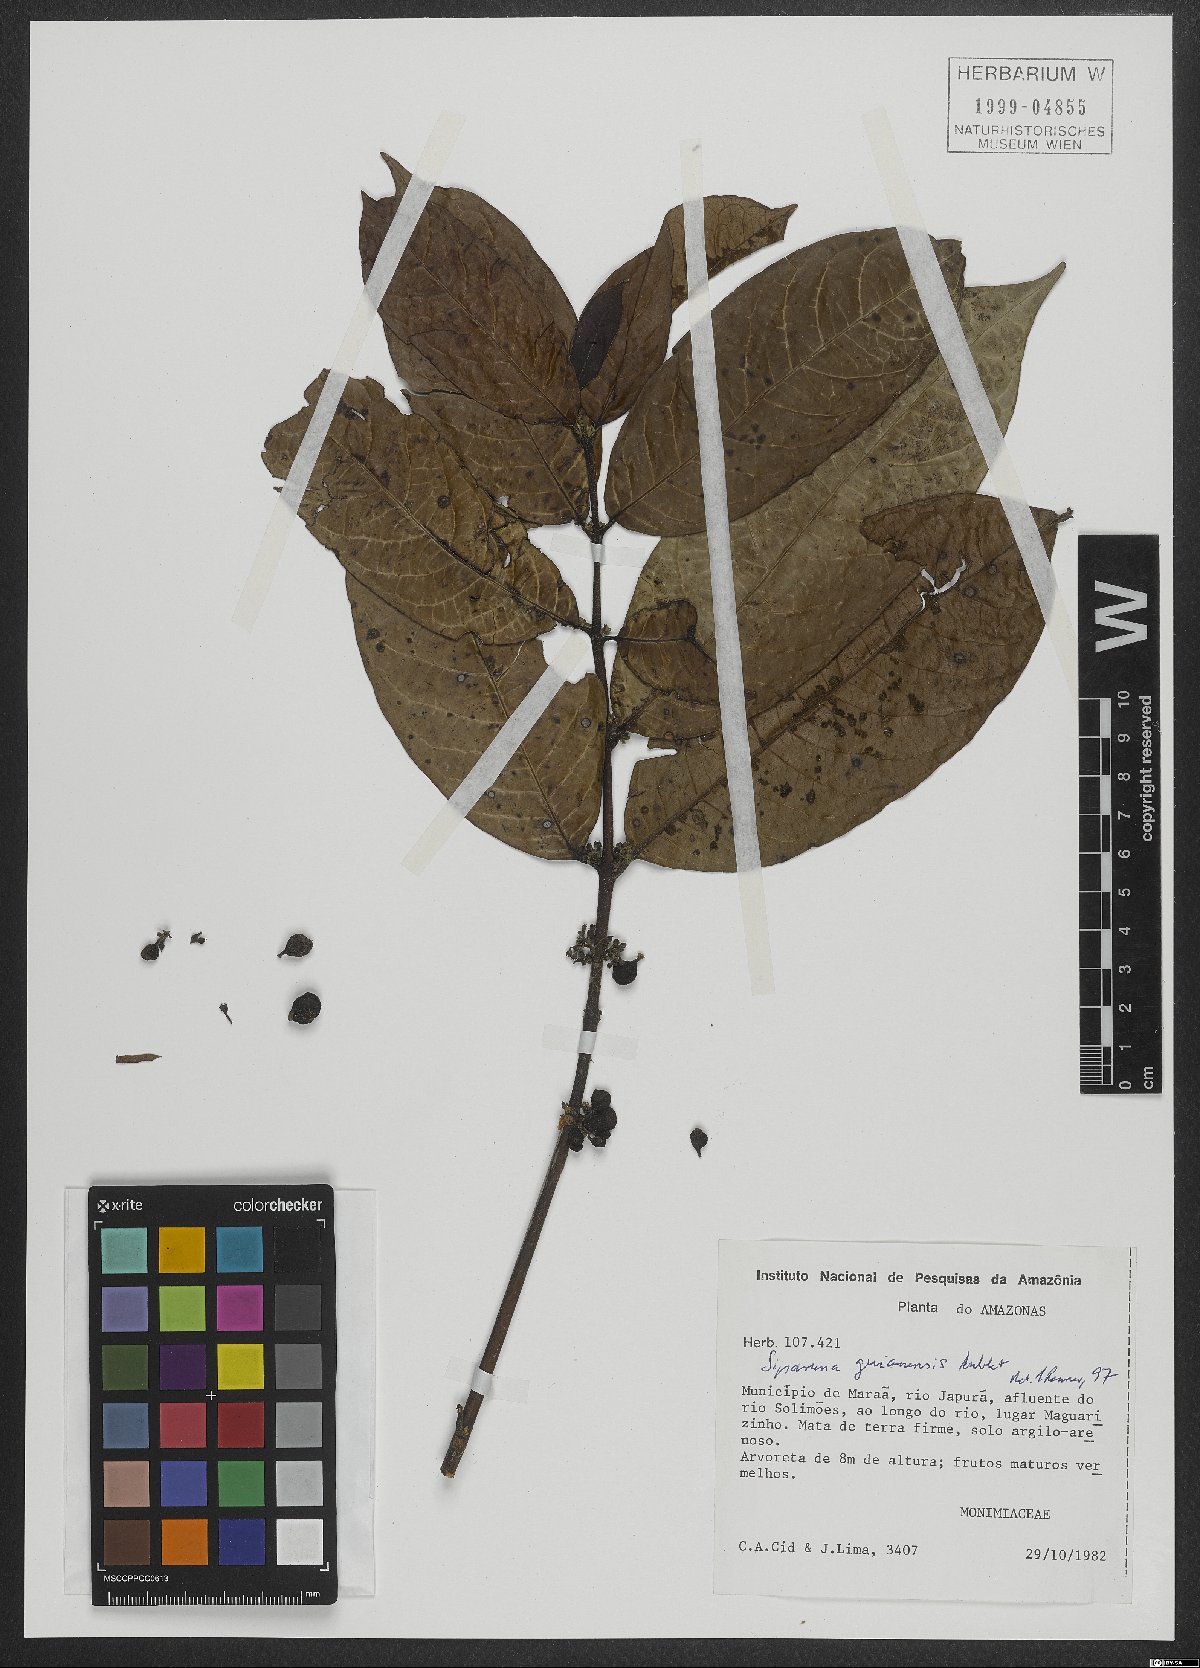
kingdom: Plantae
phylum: Tracheophyta
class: Magnoliopsida
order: Laurales
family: Siparunaceae
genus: Siparuna
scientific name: Siparuna guianensis
